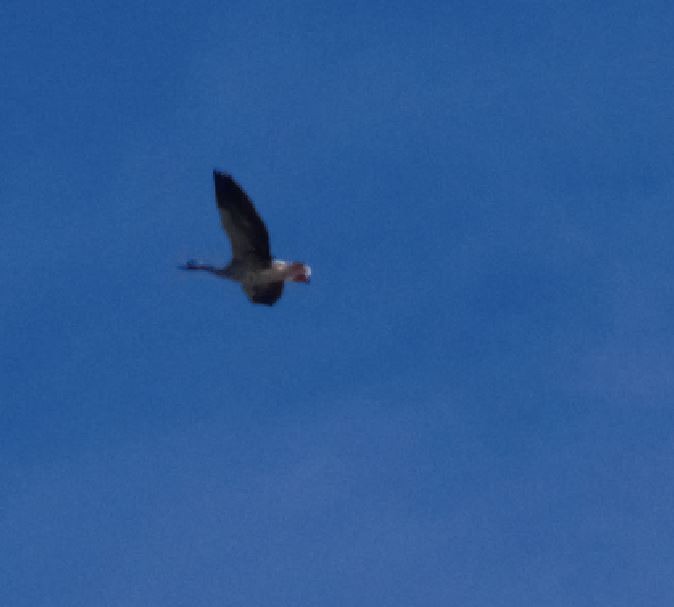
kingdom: Animalia
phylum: Chordata
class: Aves
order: Anseriformes
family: Anatidae
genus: Anser
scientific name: Anser anser
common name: Grågås
